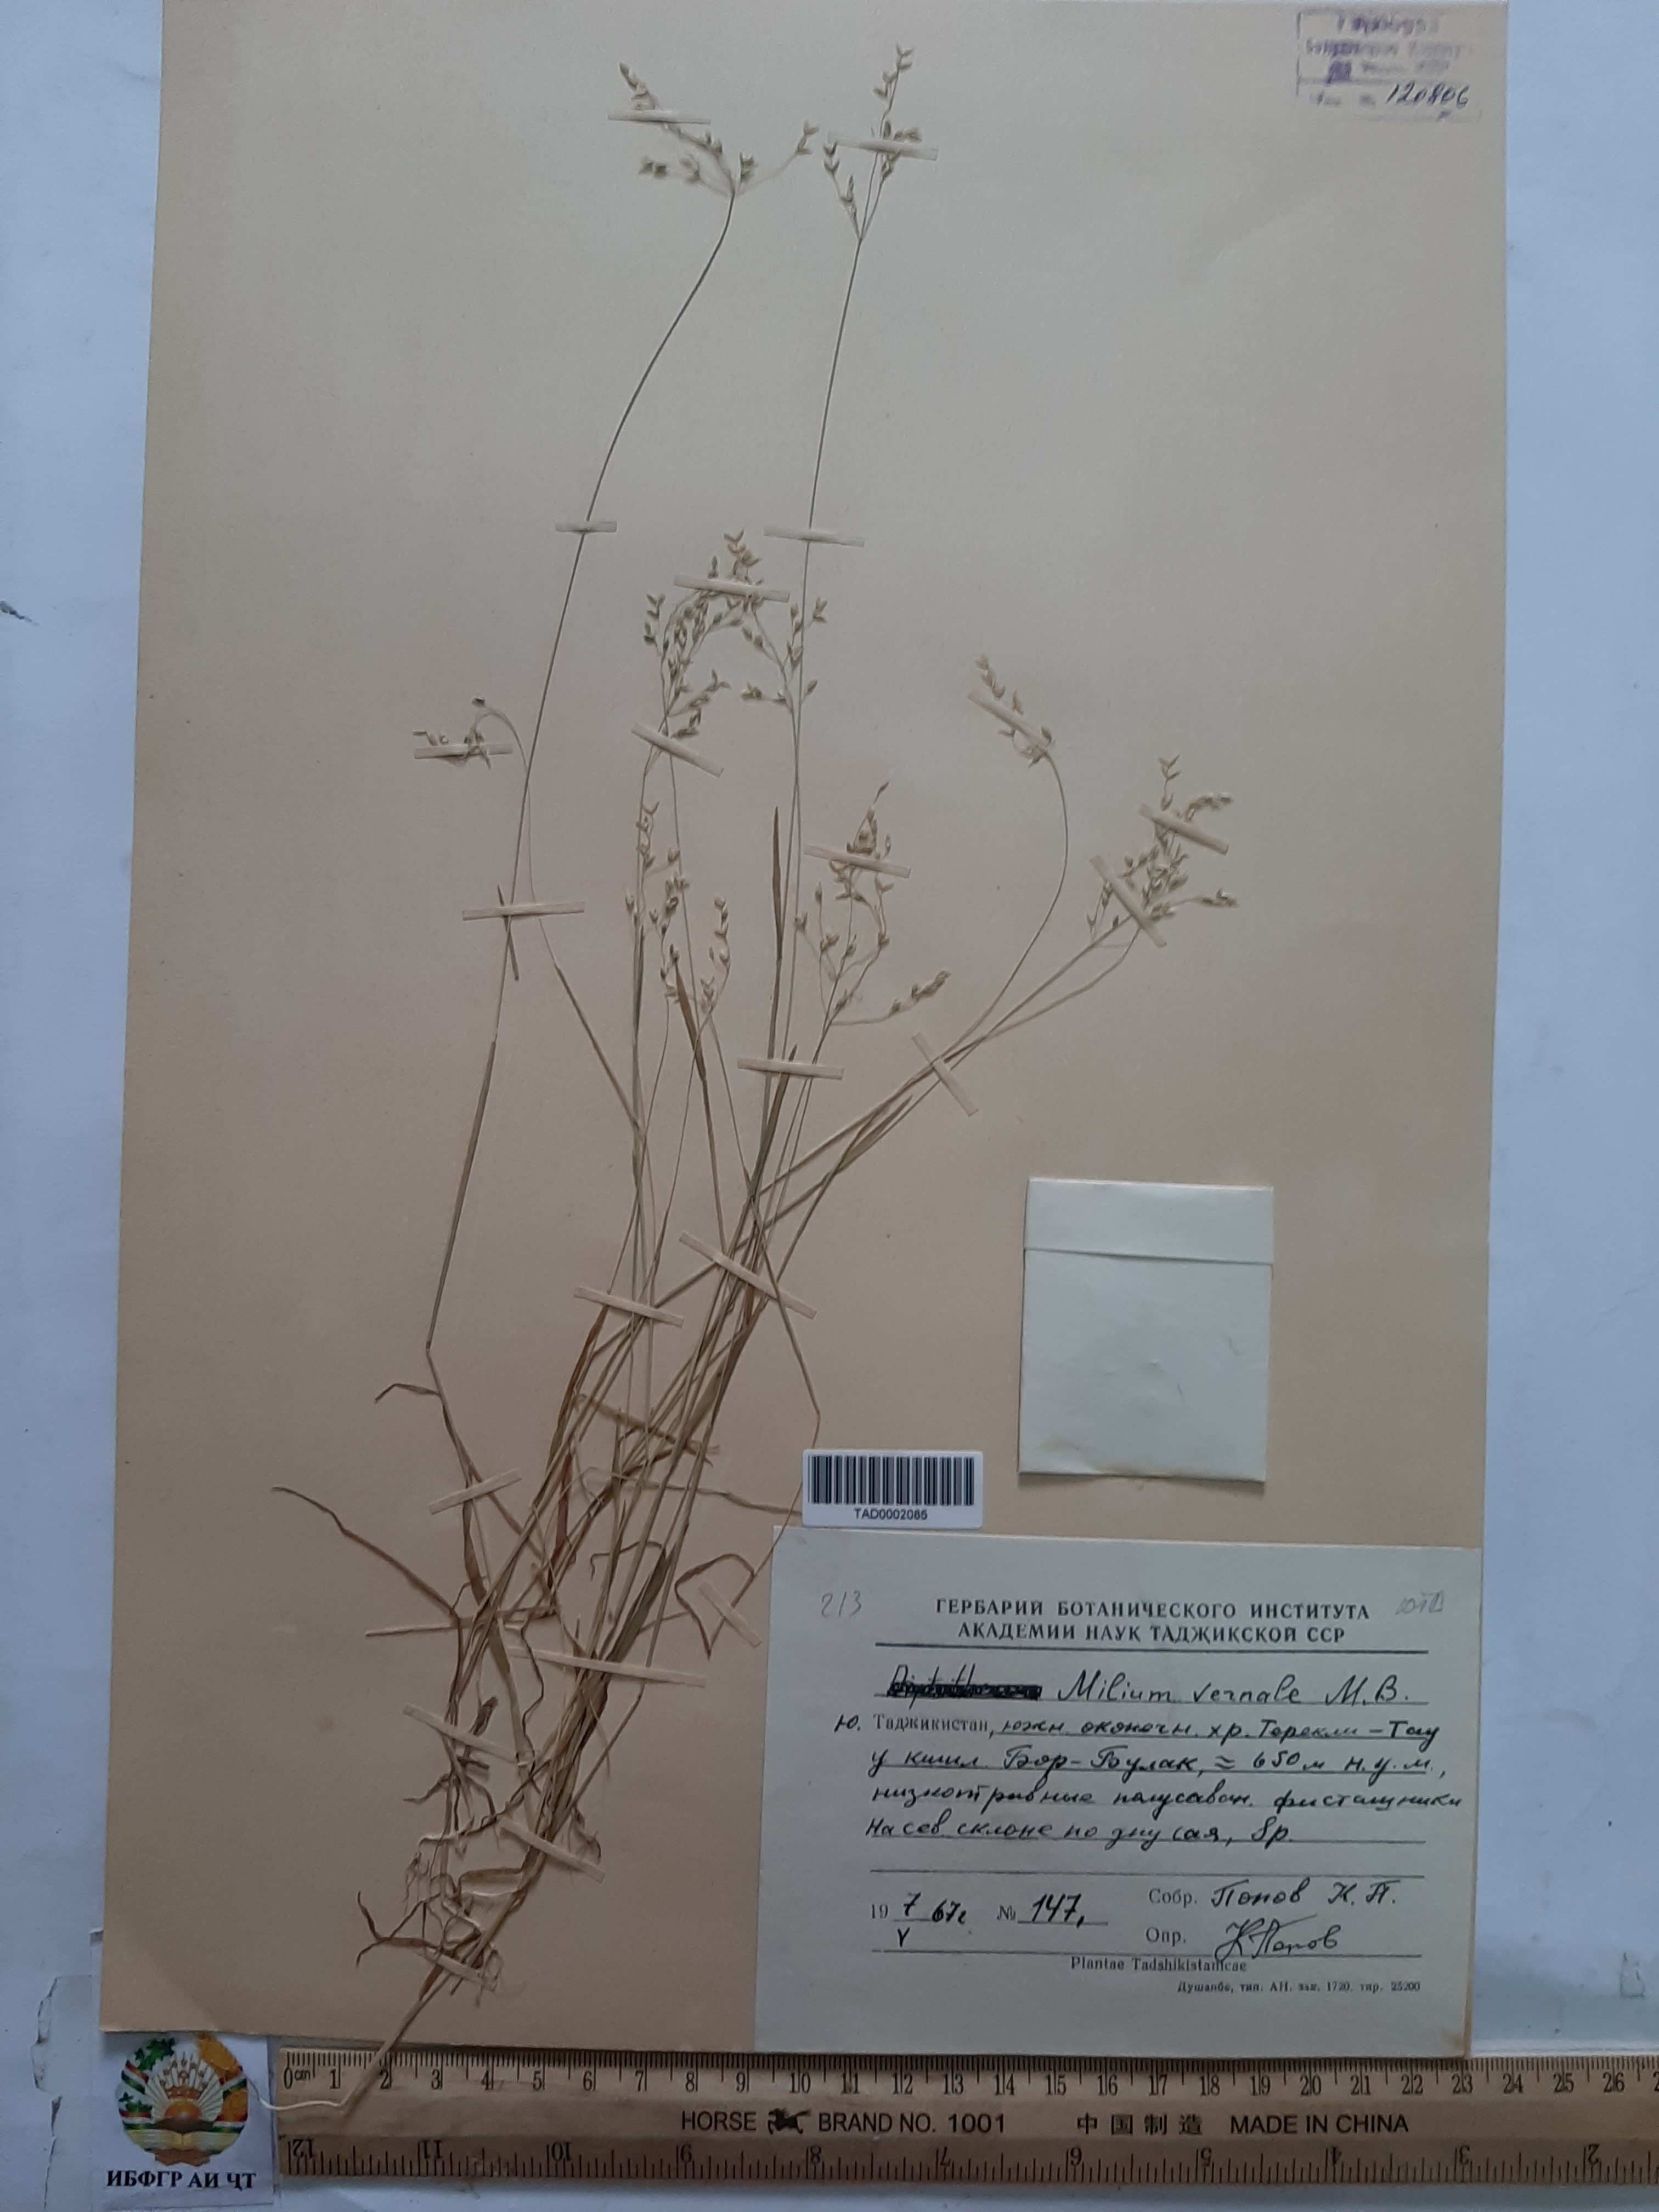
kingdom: Plantae
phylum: Tracheophyta
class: Liliopsida
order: Poales
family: Poaceae
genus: Milium
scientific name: Milium vernale
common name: Early millet
